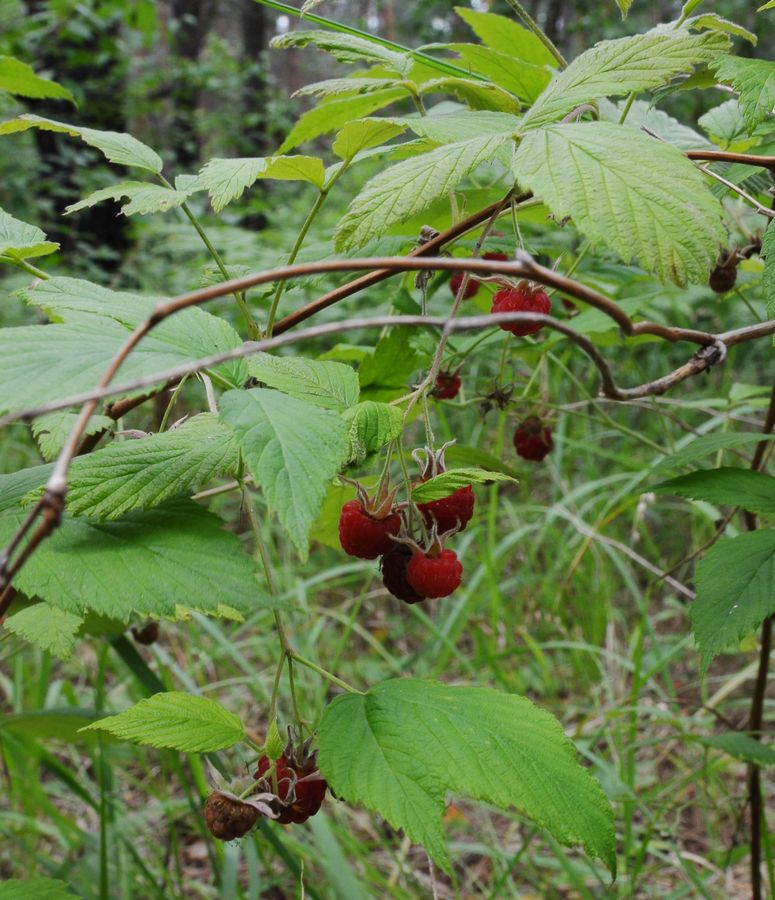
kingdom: Plantae
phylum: Tracheophyta
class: Magnoliopsida
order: Rosales
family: Rosaceae
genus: Rubus
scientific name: Rubus idaeus
